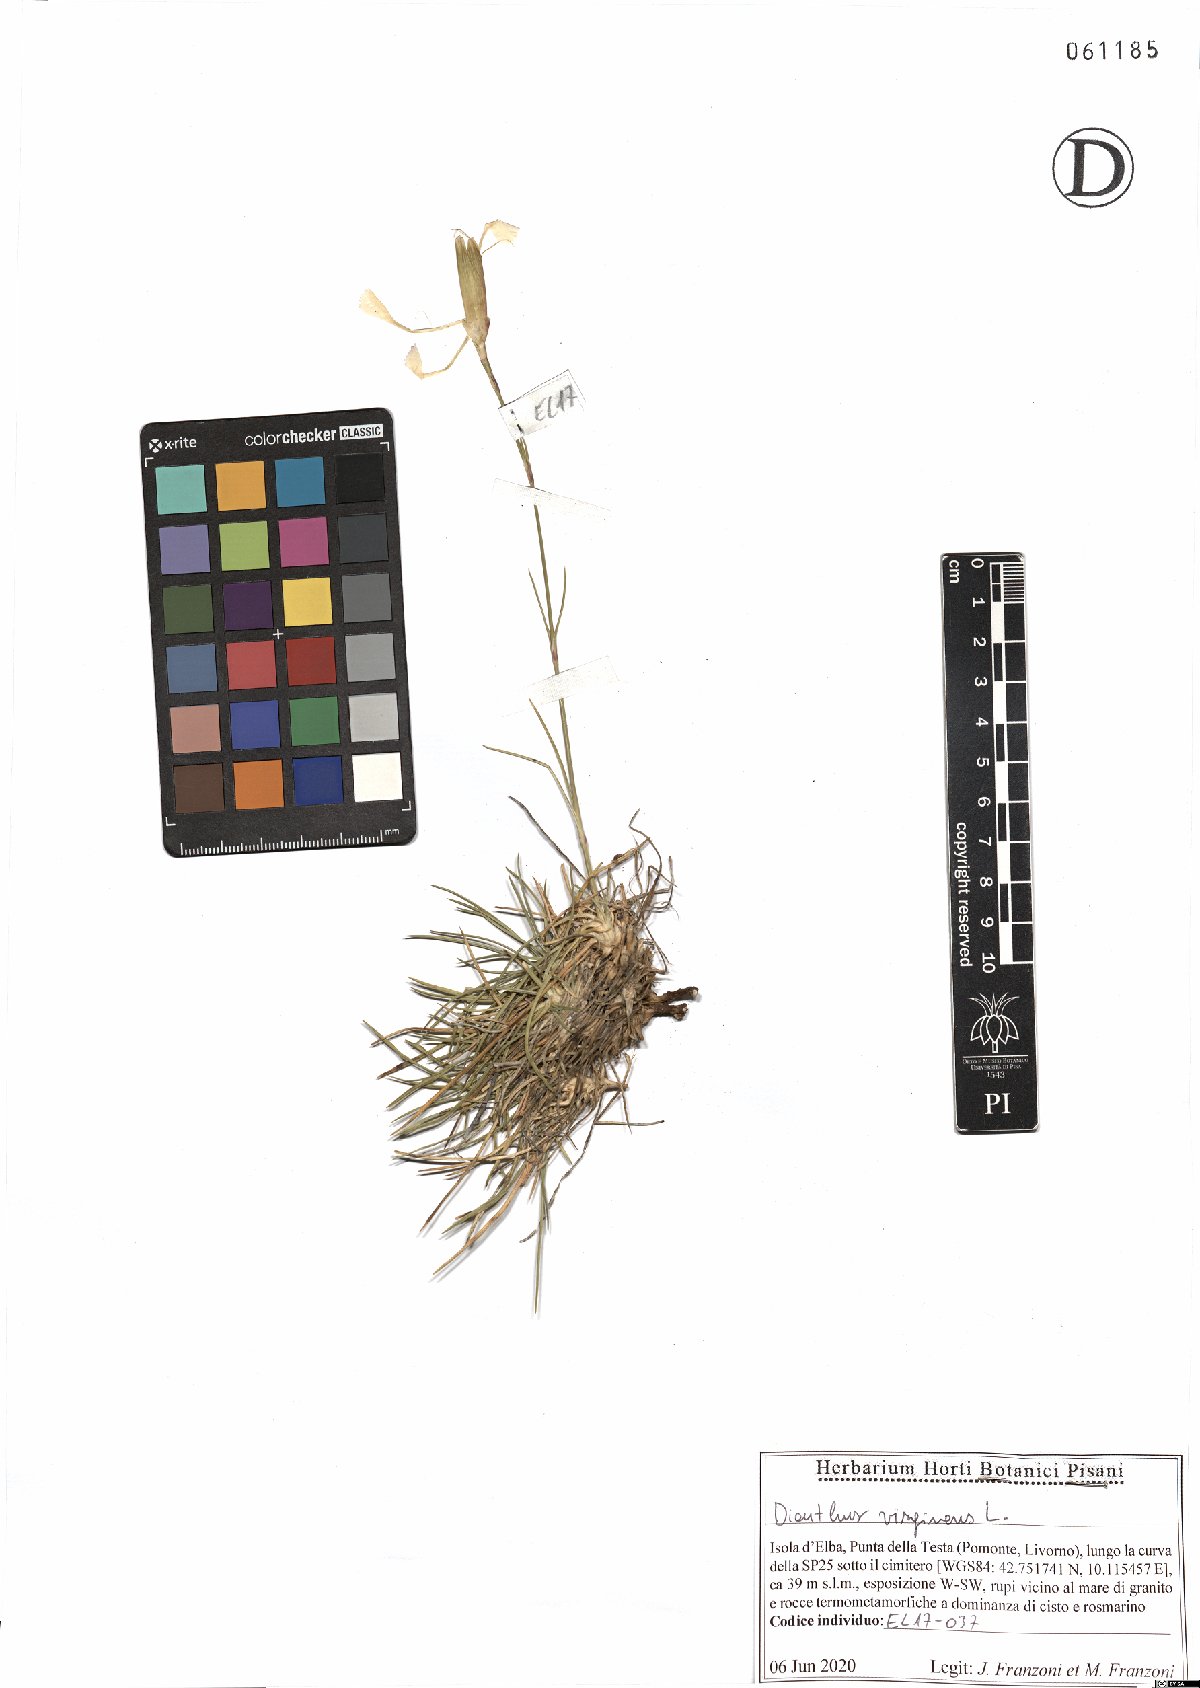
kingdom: Plantae
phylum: Tracheophyta
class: Magnoliopsida
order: Caryophyllales
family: Caryophyllaceae
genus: Dianthus
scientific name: Dianthus virgineus
